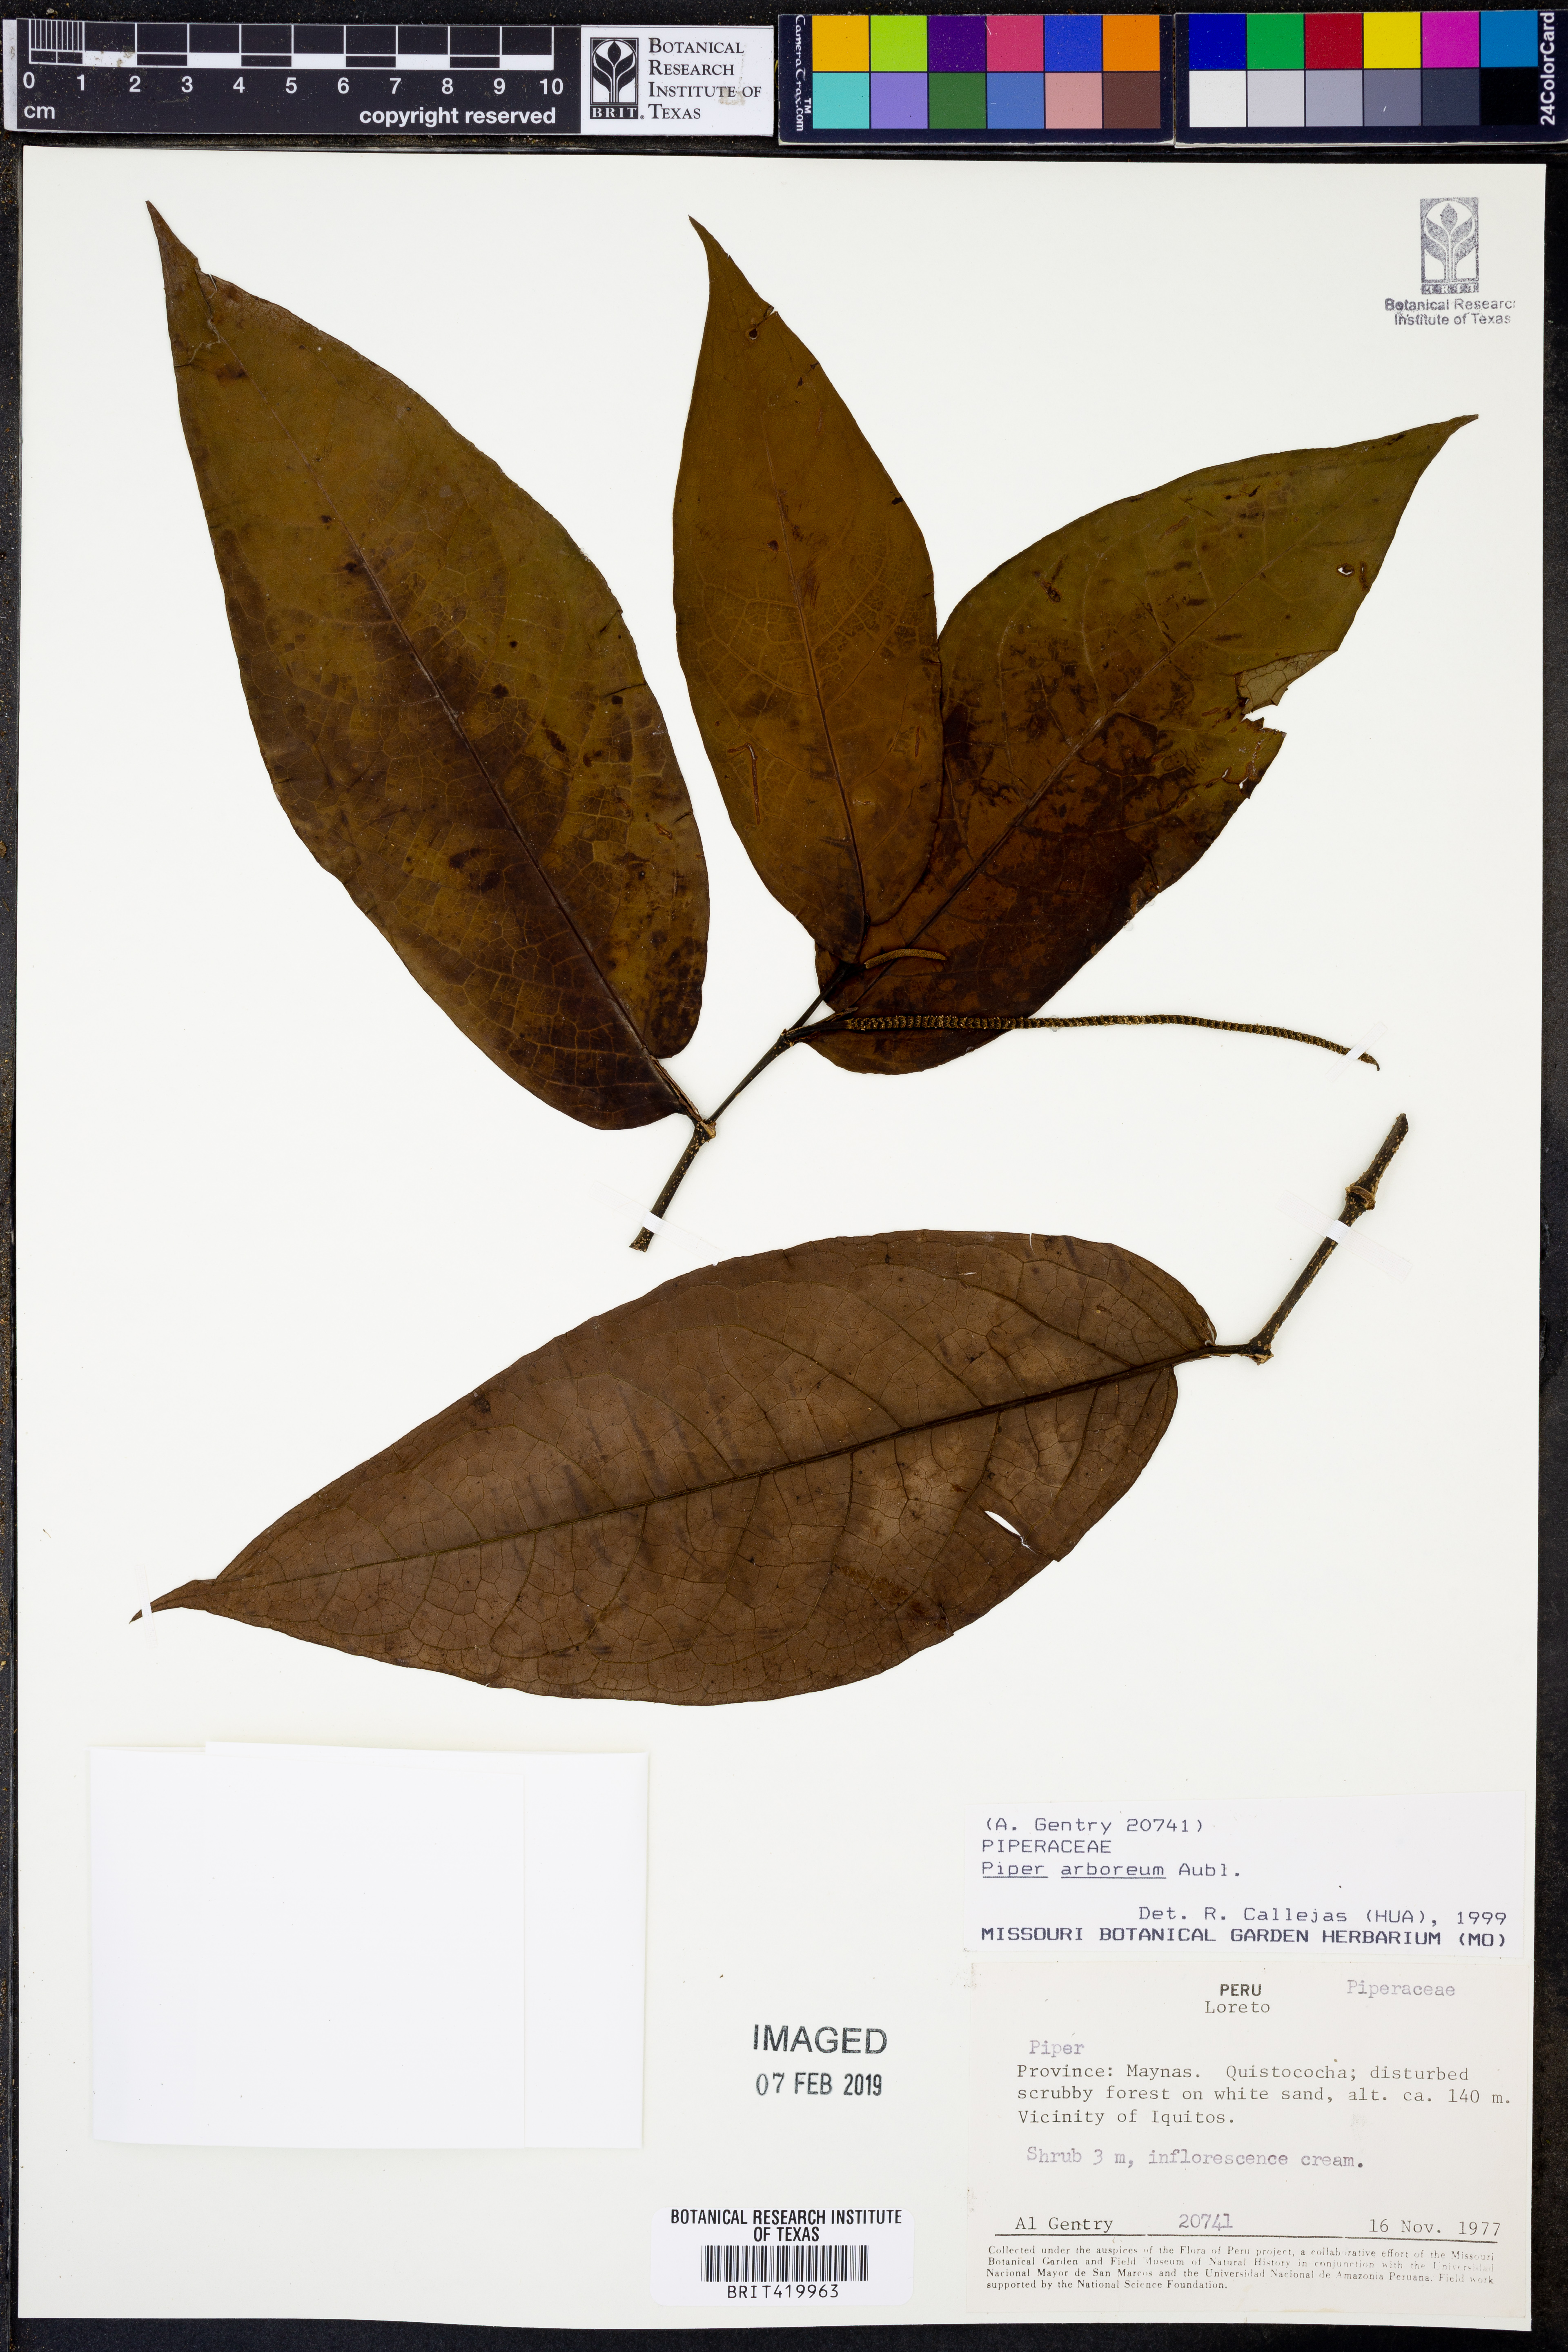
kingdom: Plantae
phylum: Tracheophyta
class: Magnoliopsida
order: Piperales
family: Piperaceae
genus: Piper
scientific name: Piper arboreum
